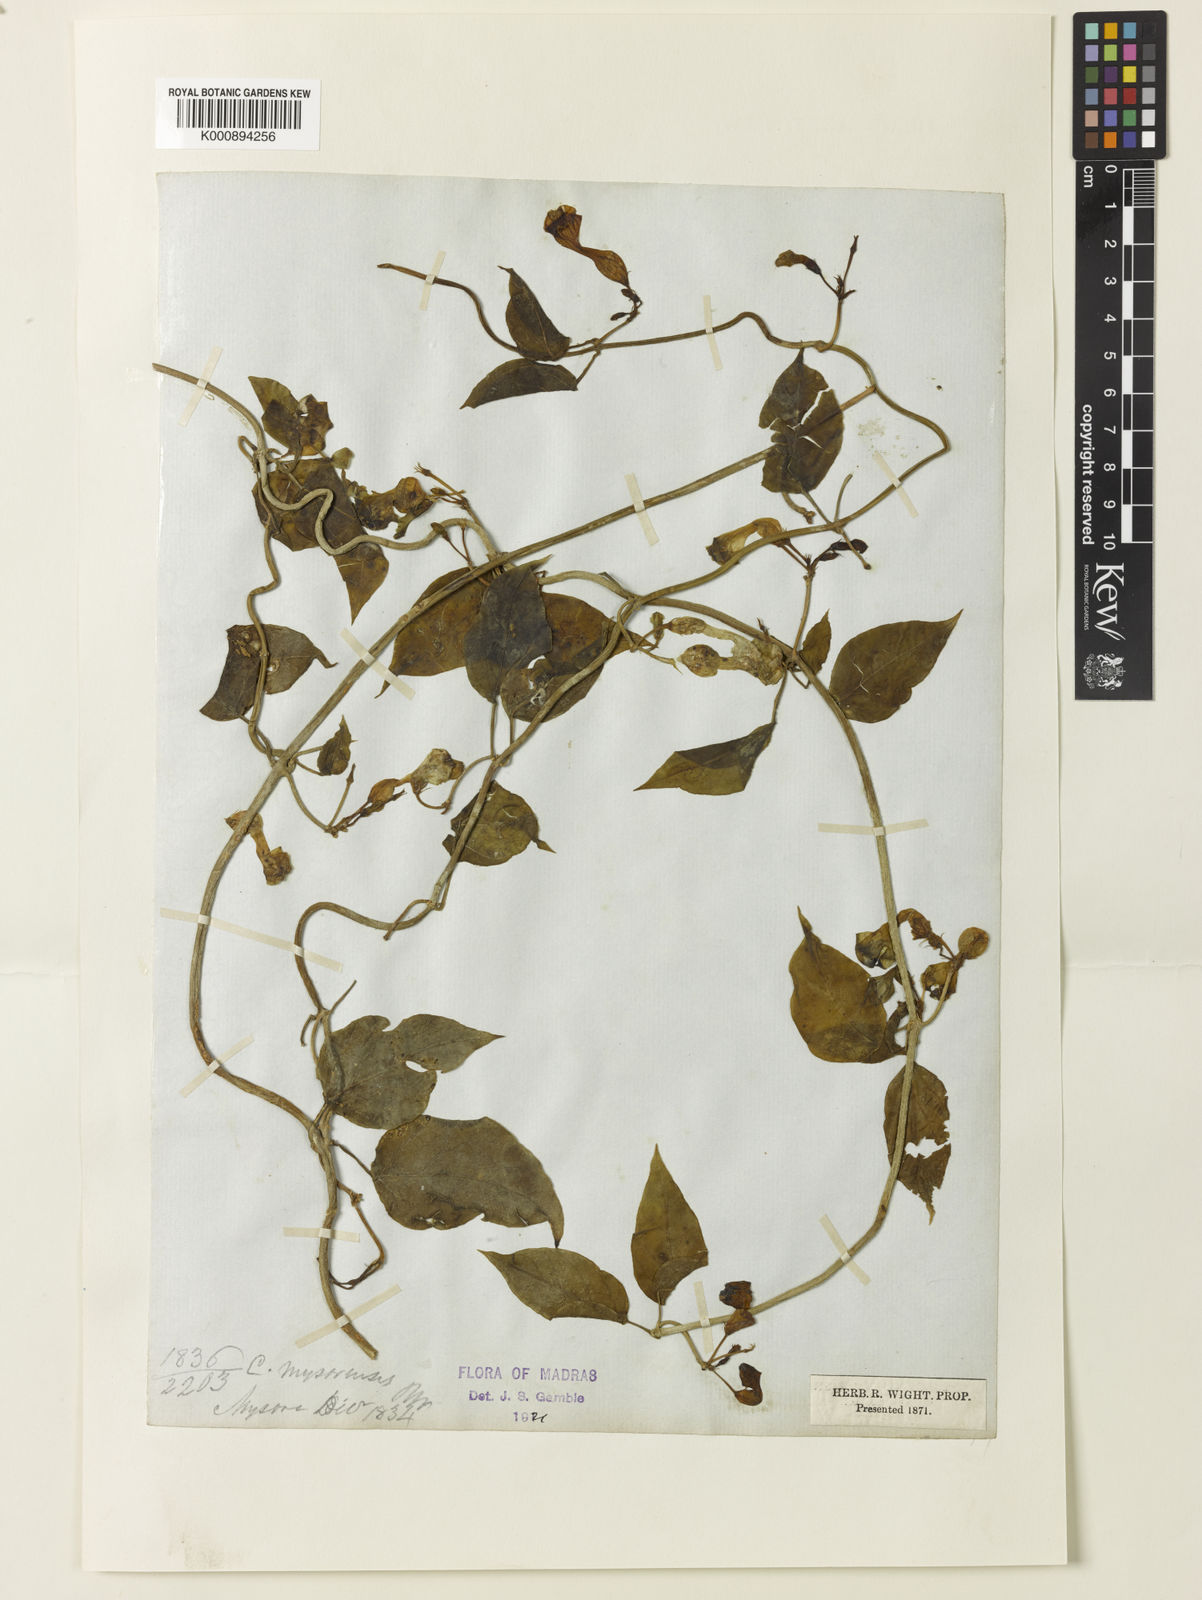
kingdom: Plantae
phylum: Tracheophyta
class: Magnoliopsida
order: Gentianales
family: Apocynaceae
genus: Ceropegia
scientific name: Ceropegia elegans
